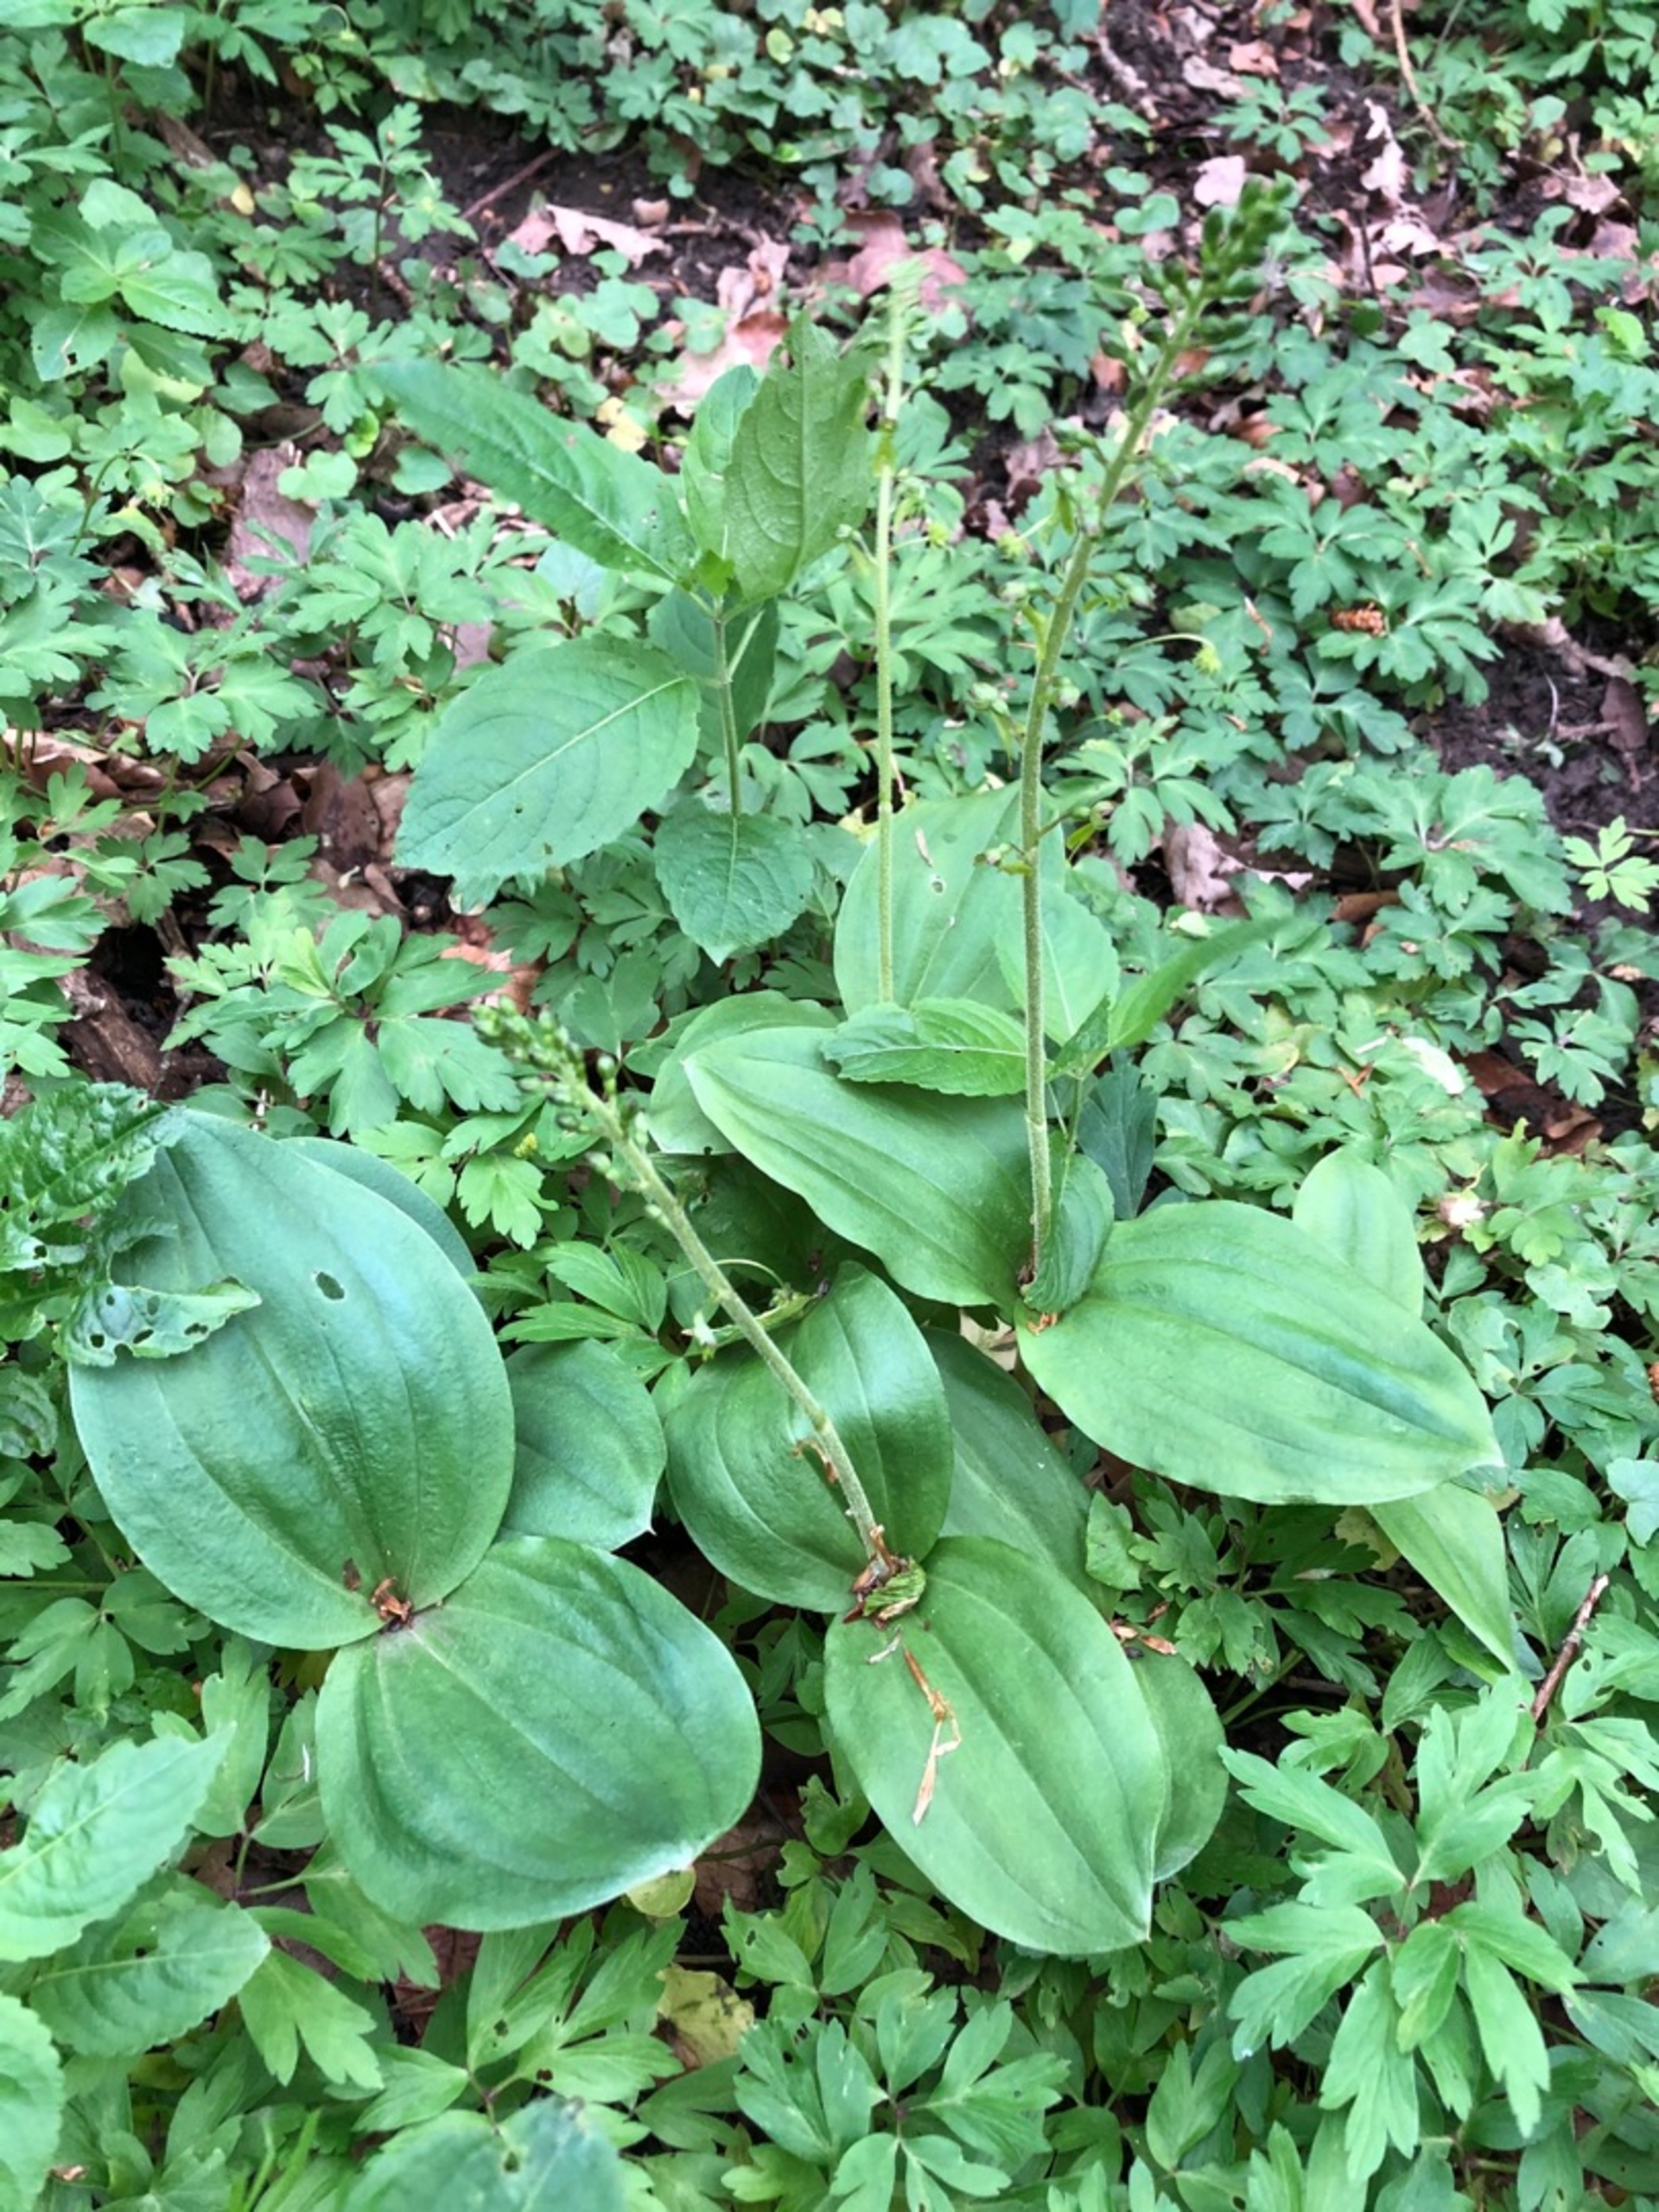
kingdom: Plantae
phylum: Tracheophyta
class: Liliopsida
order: Asparagales
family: Orchidaceae
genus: Neottia
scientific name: Neottia ovata
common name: Ægbladet fliglæbe
